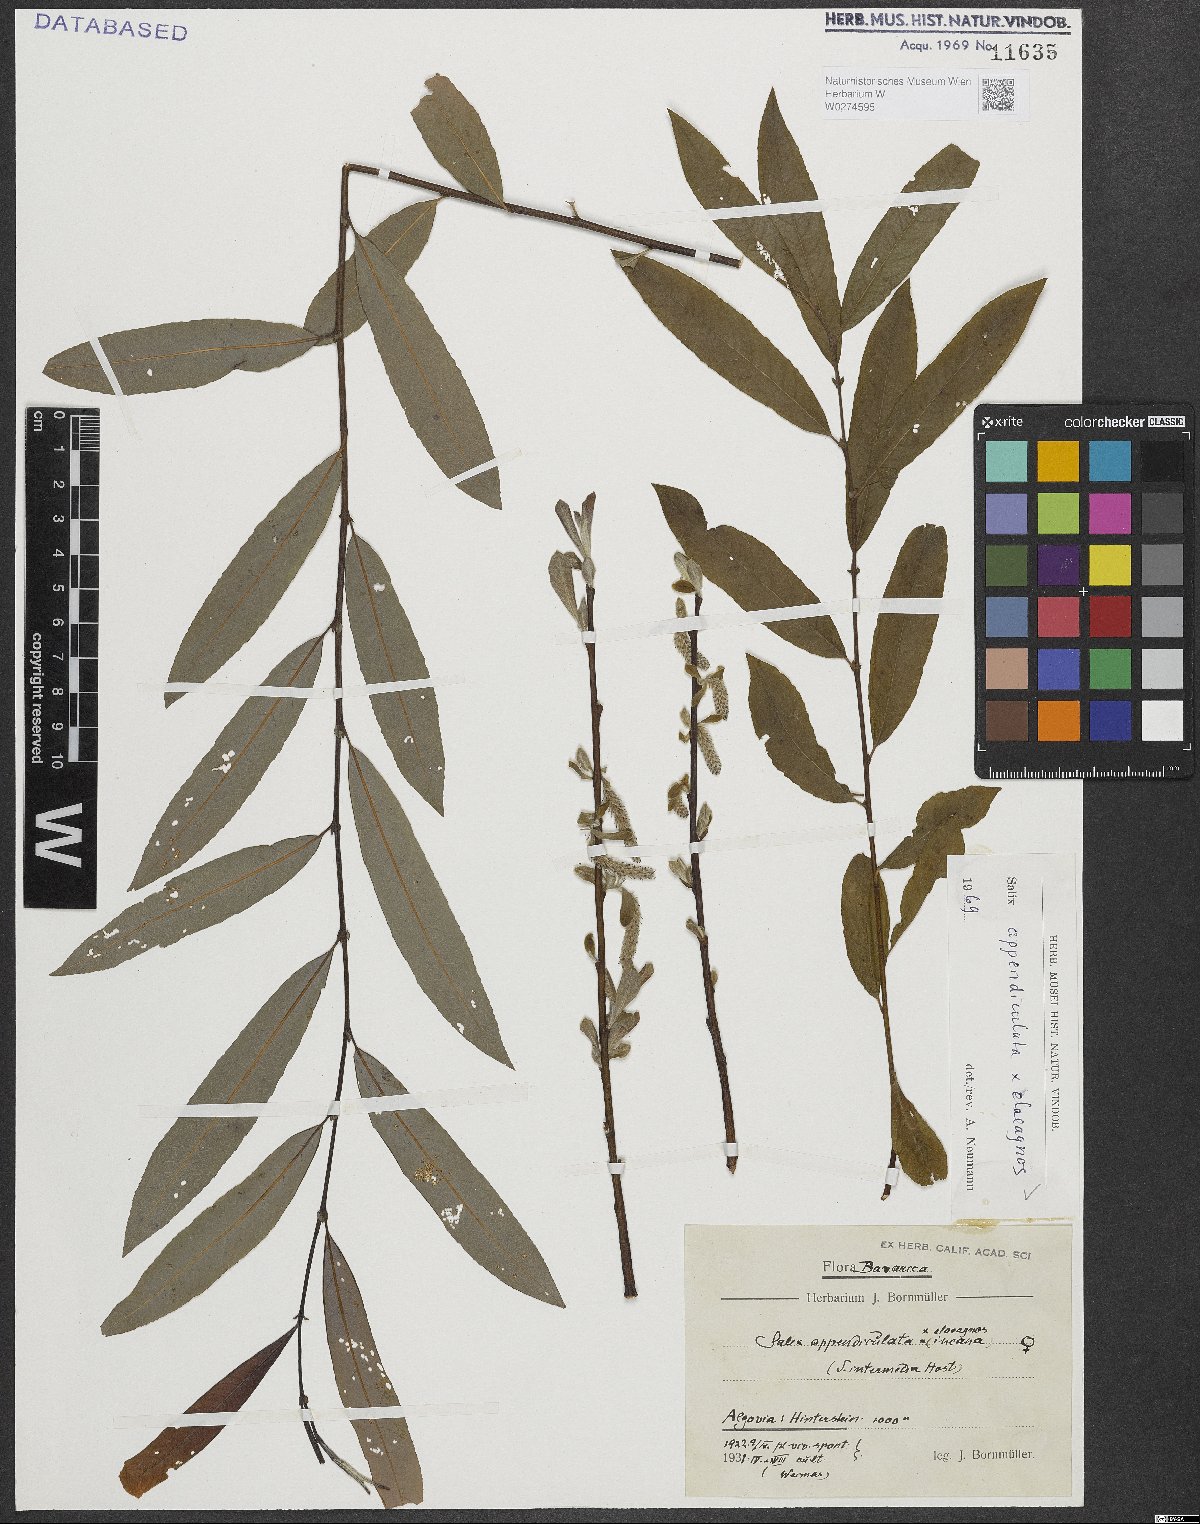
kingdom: Plantae
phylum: Tracheophyta
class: Magnoliopsida
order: Malpighiales
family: Salicaceae
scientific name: Salicaceae
